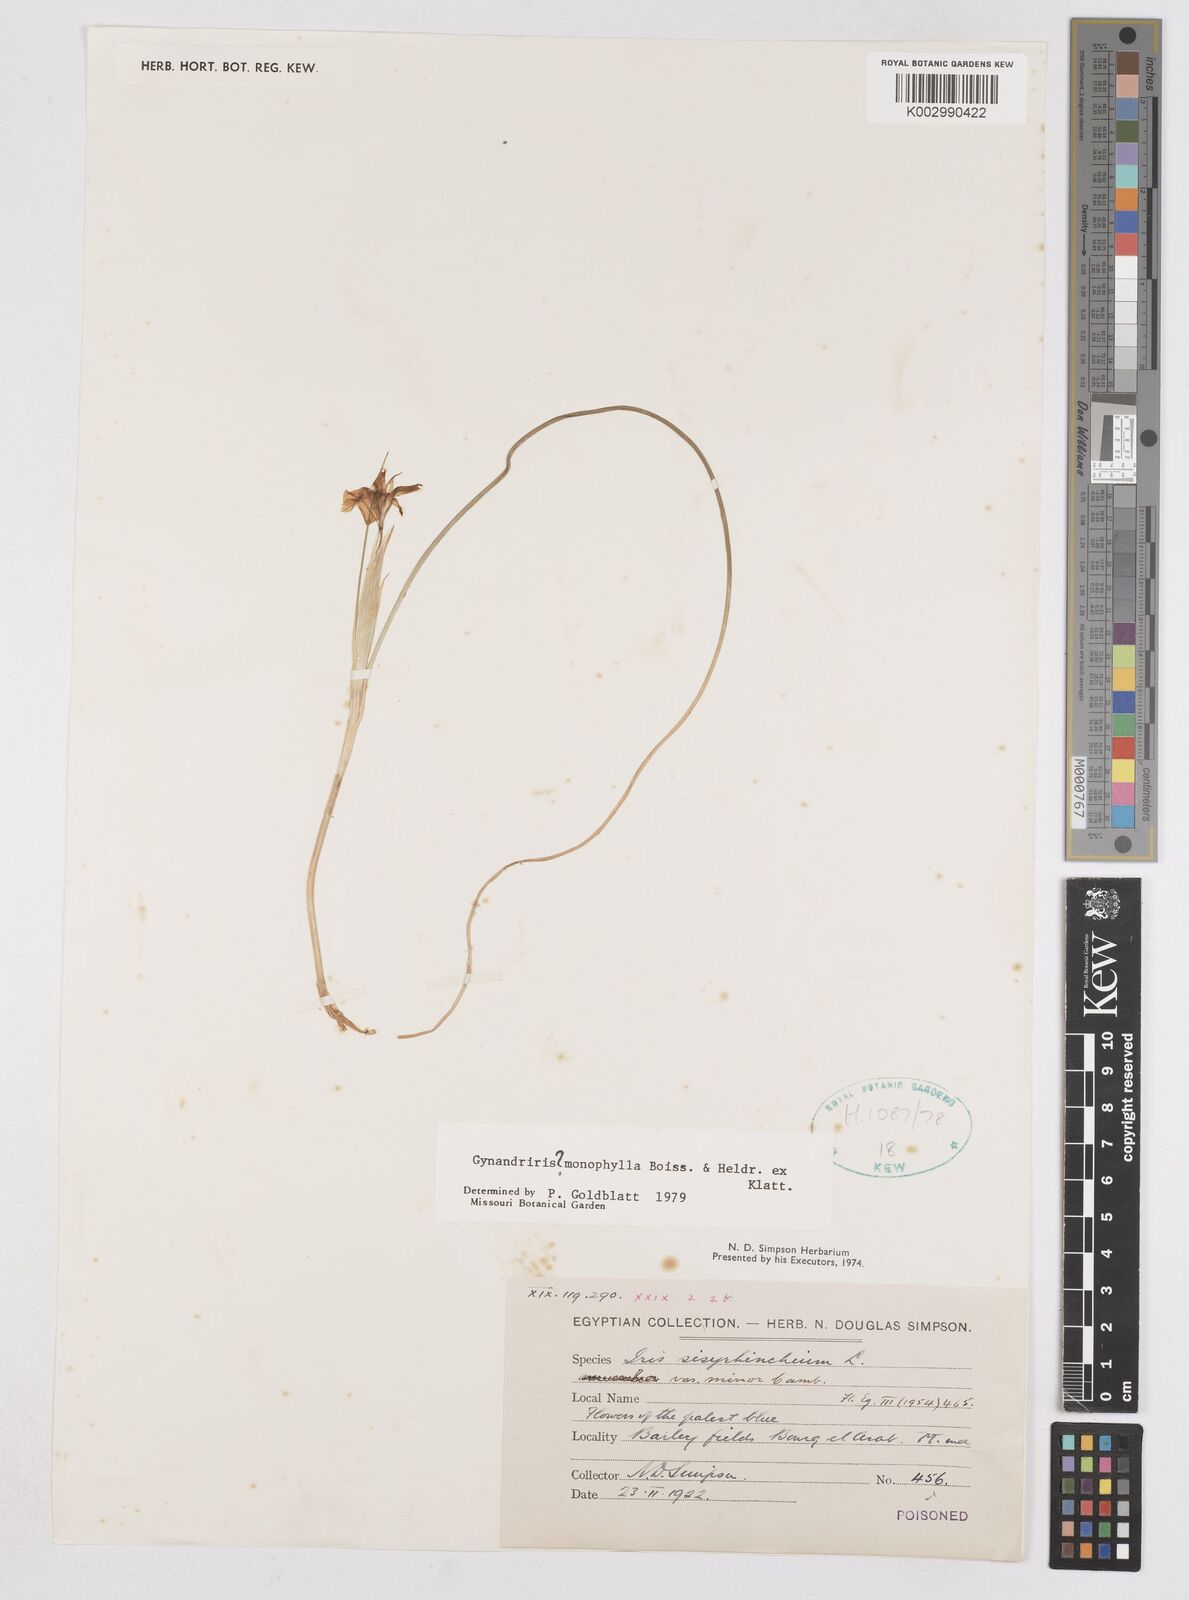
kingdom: Plantae
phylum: Tracheophyta
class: Liliopsida
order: Asparagales
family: Iridaceae
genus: Moraea
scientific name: Moraea
